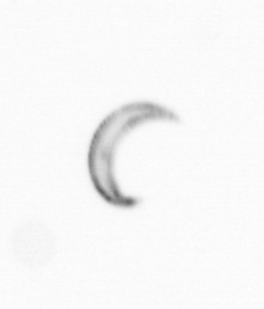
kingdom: Chromista
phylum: Ochrophyta
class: Bacillariophyceae
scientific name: Bacillariophyceae
